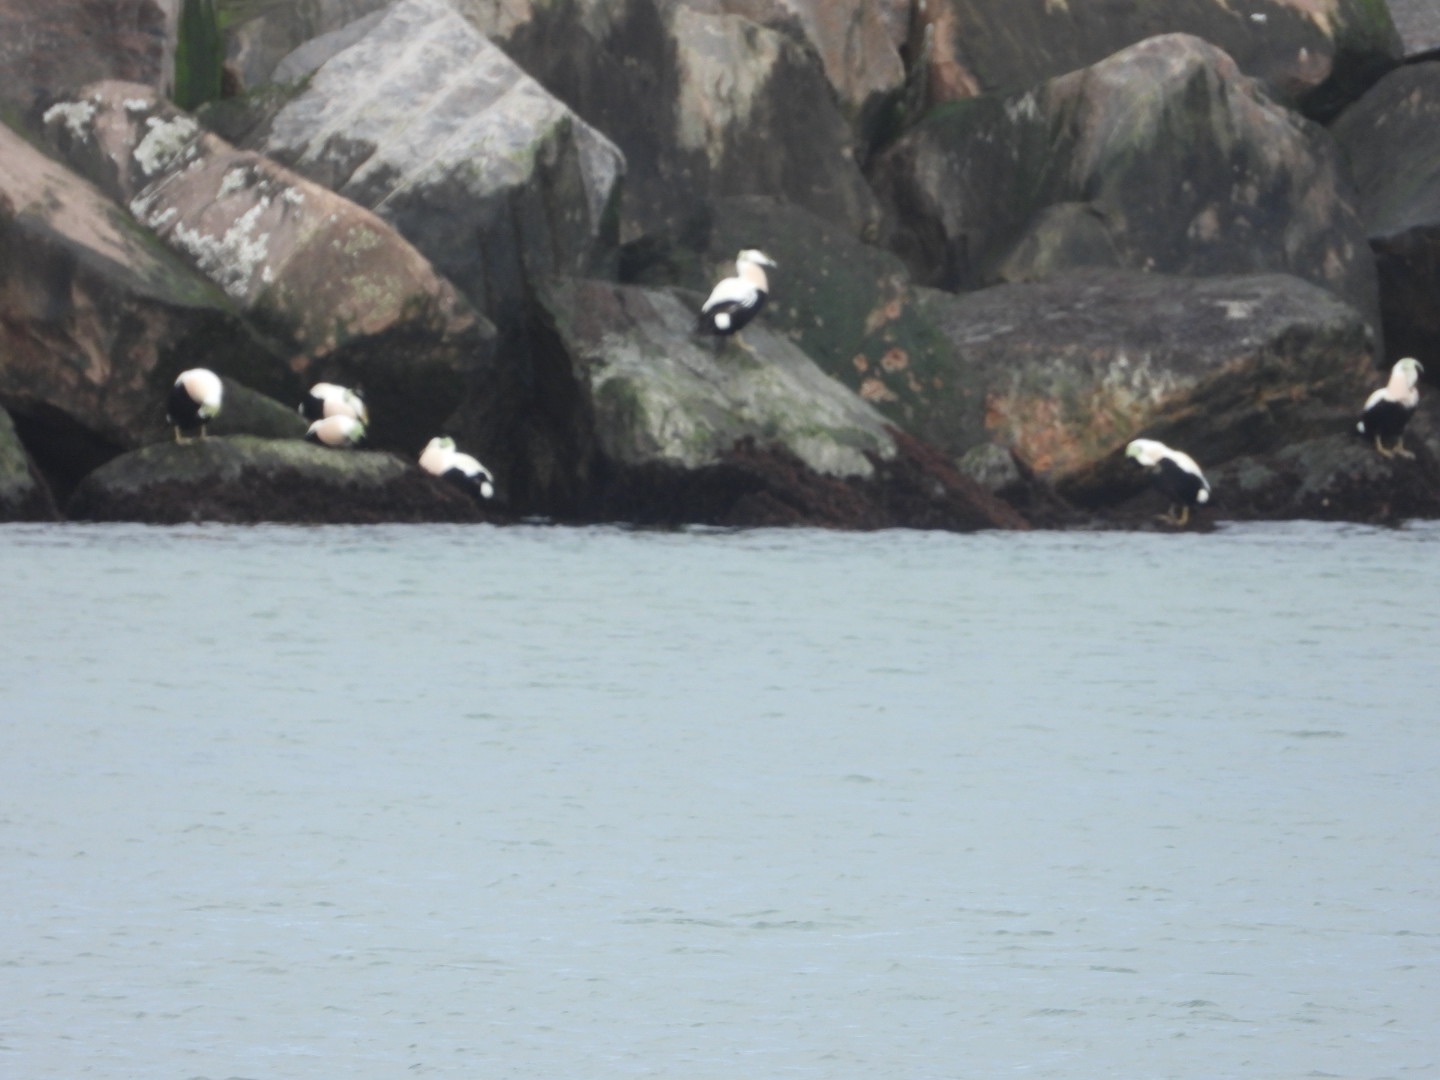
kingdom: Animalia
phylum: Chordata
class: Aves
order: Anseriformes
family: Anatidae
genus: Somateria
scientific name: Somateria mollissima
